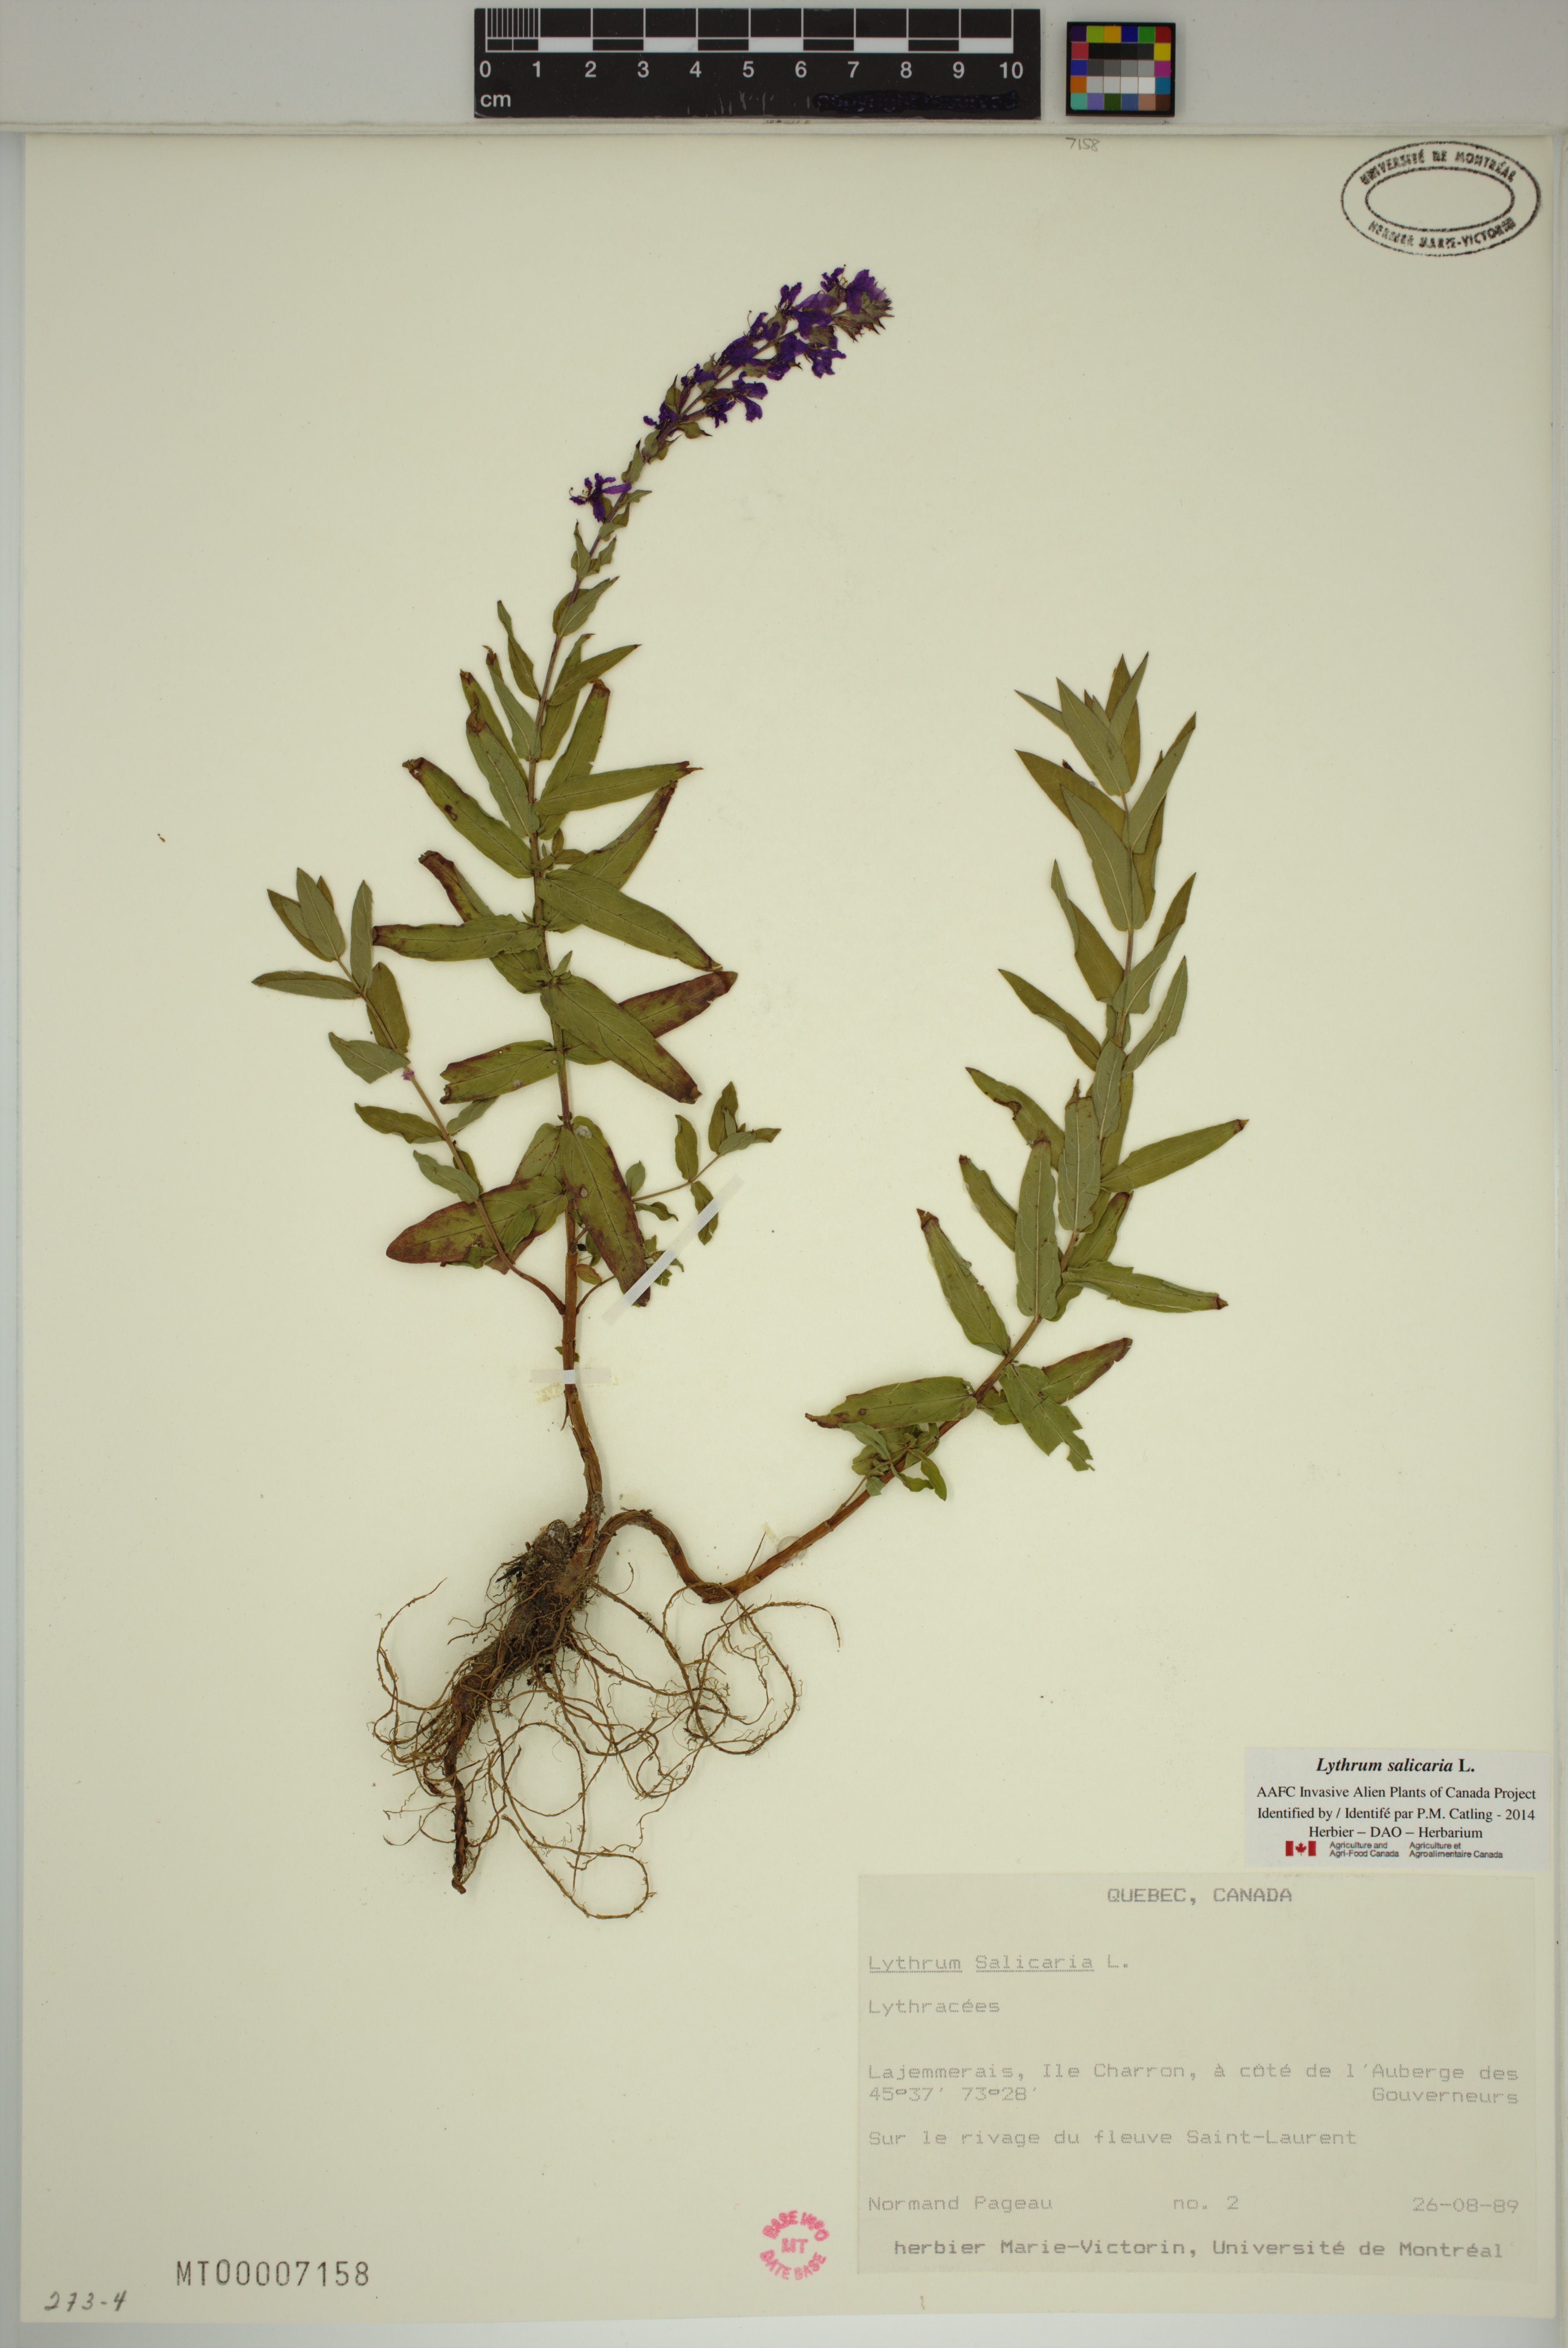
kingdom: Plantae
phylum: Tracheophyta
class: Magnoliopsida
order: Myrtales
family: Lythraceae
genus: Lythrum
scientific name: Lythrum salicaria
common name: Purple loosestrife
